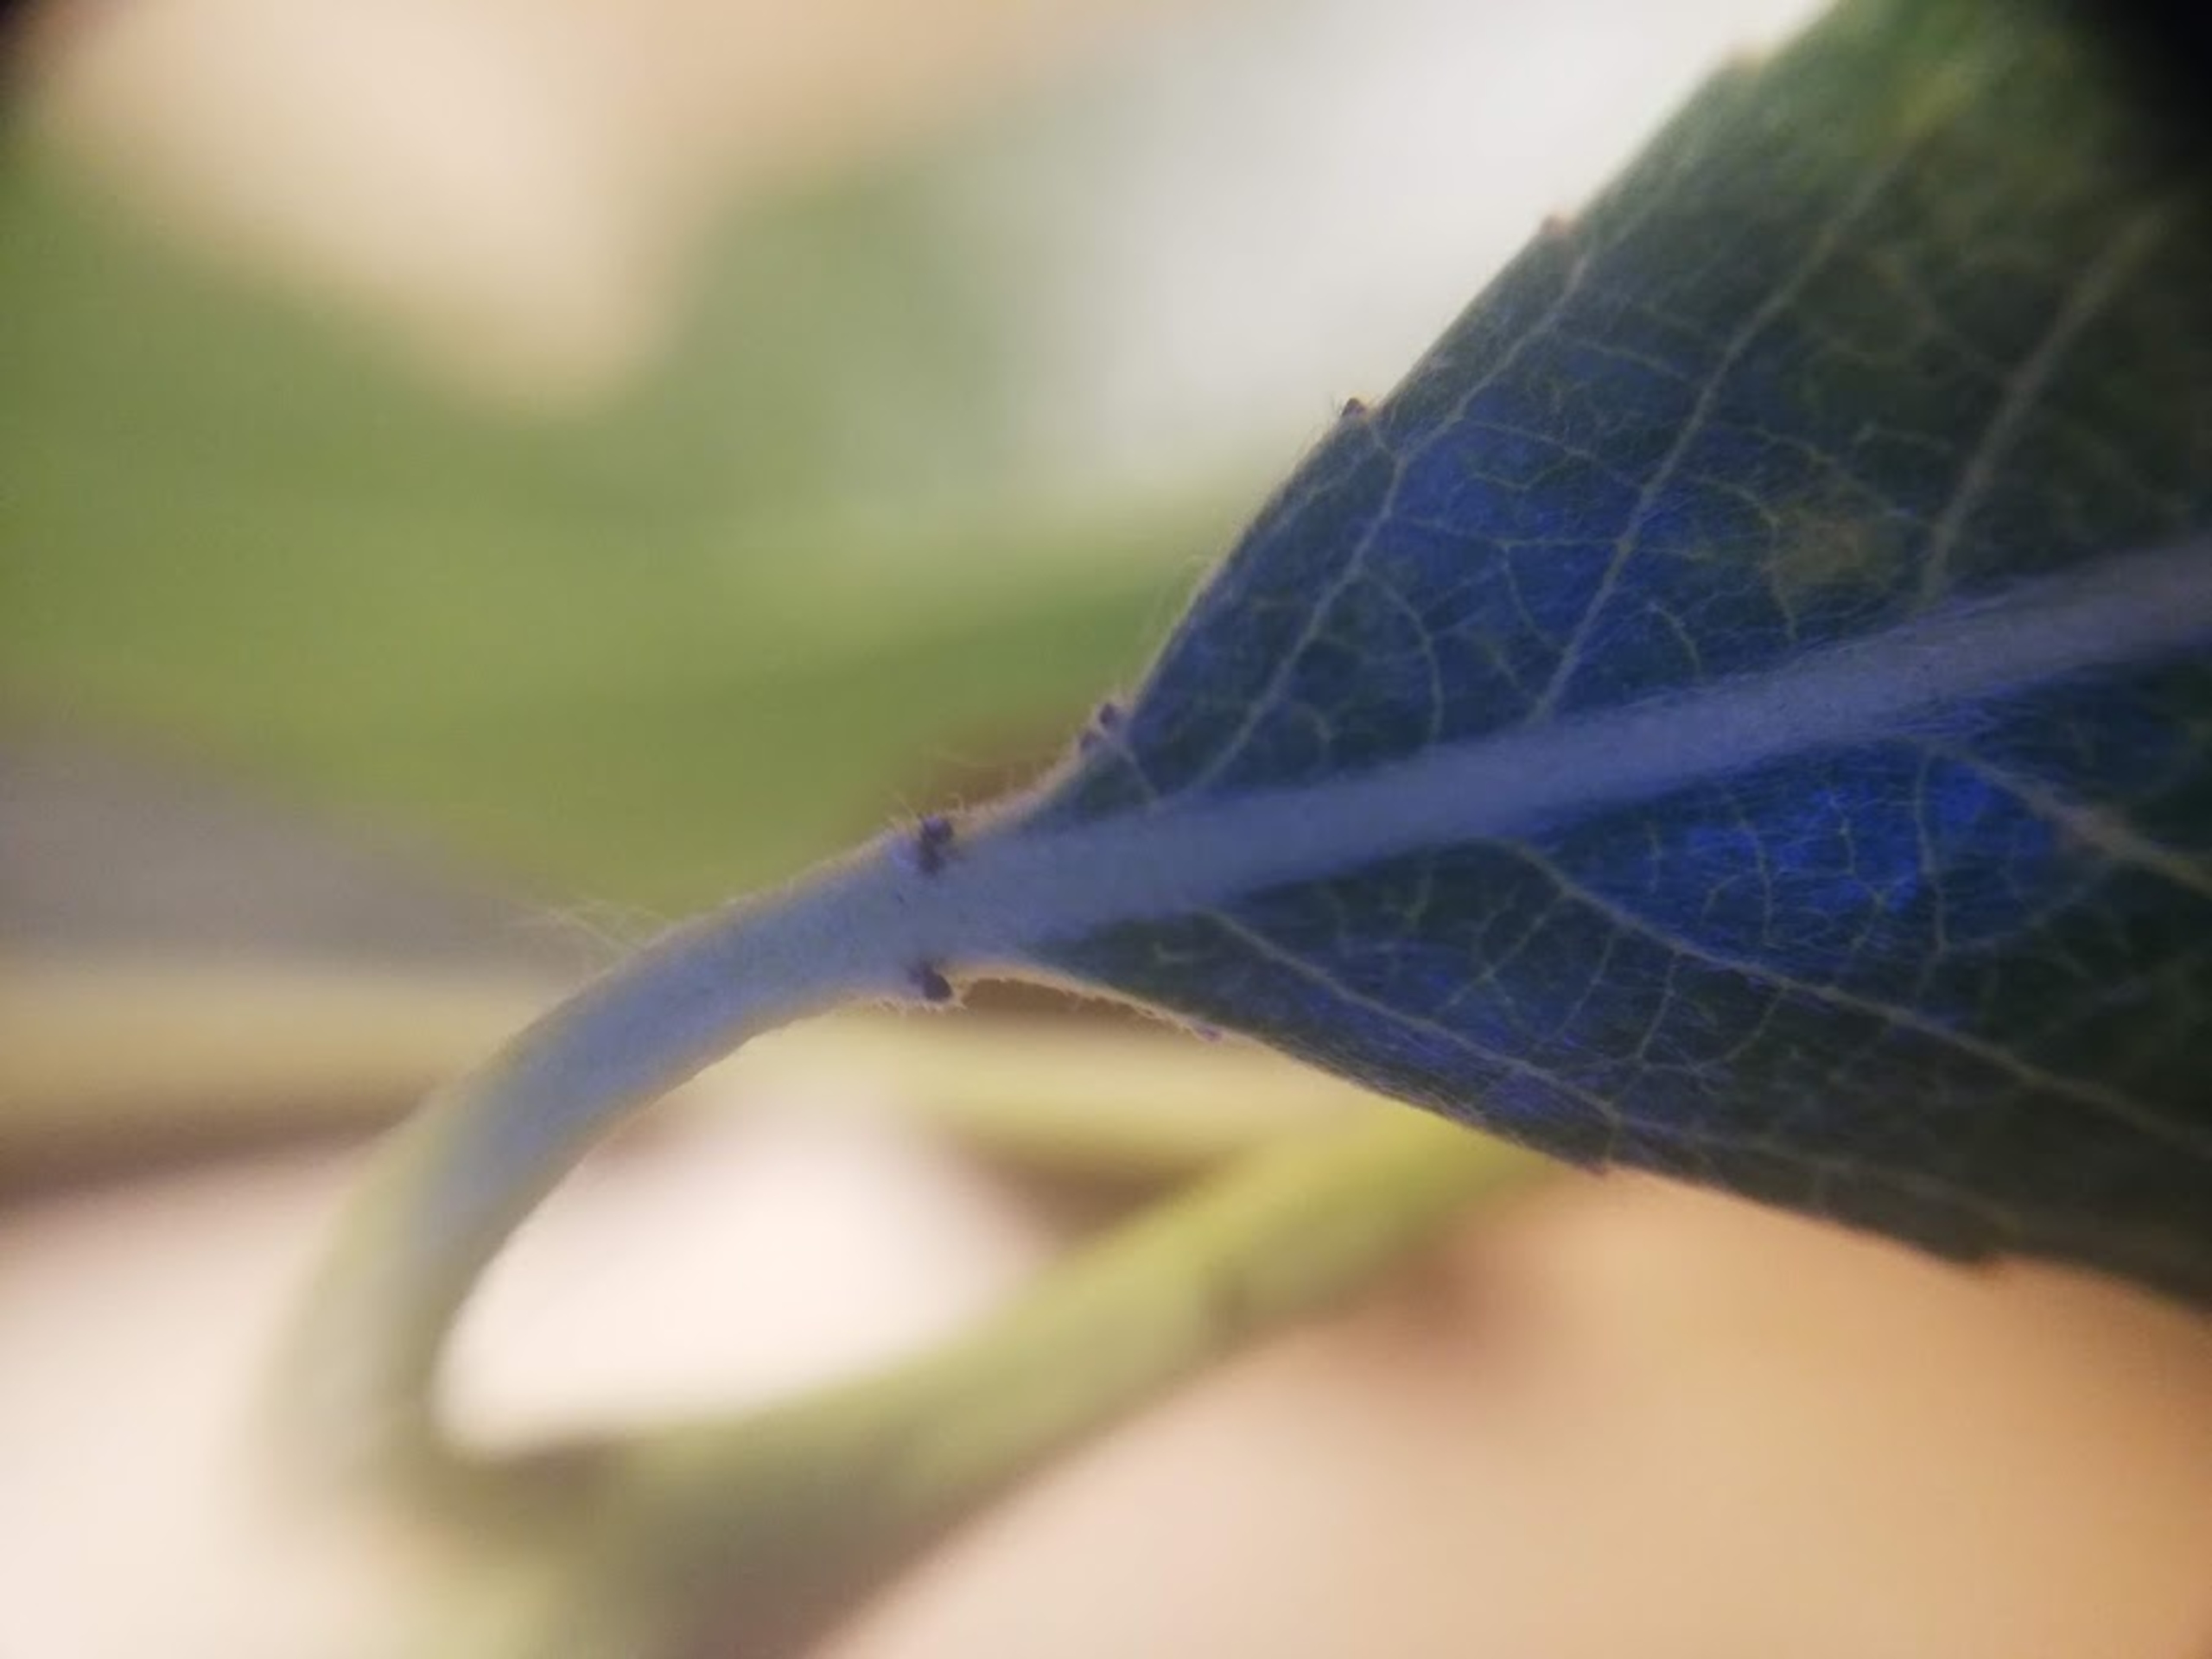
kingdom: Plantae
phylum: Tracheophyta
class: Magnoliopsida
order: Malpighiales
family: Salicaceae
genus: Salix
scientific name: Salix fragilis
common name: Grøn pil
